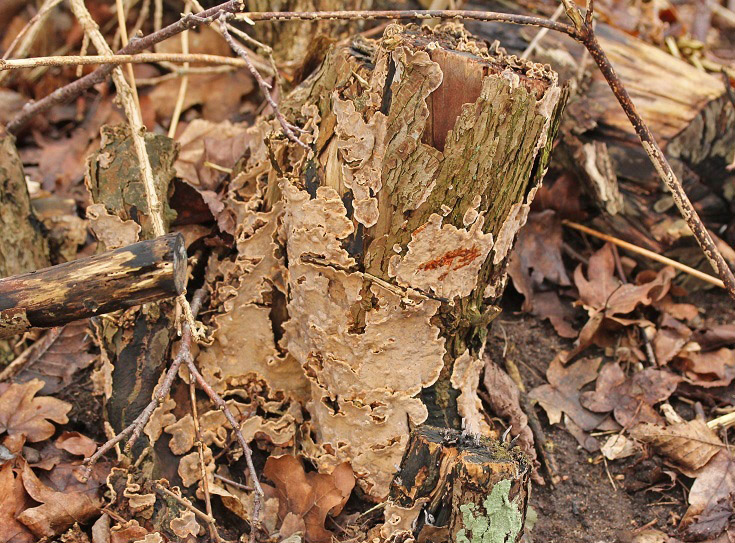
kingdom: Fungi
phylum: Basidiomycota
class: Agaricomycetes
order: Russulales
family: Stereaceae
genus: Stereum
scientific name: Stereum rugosum
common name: rynket lædersvamp
